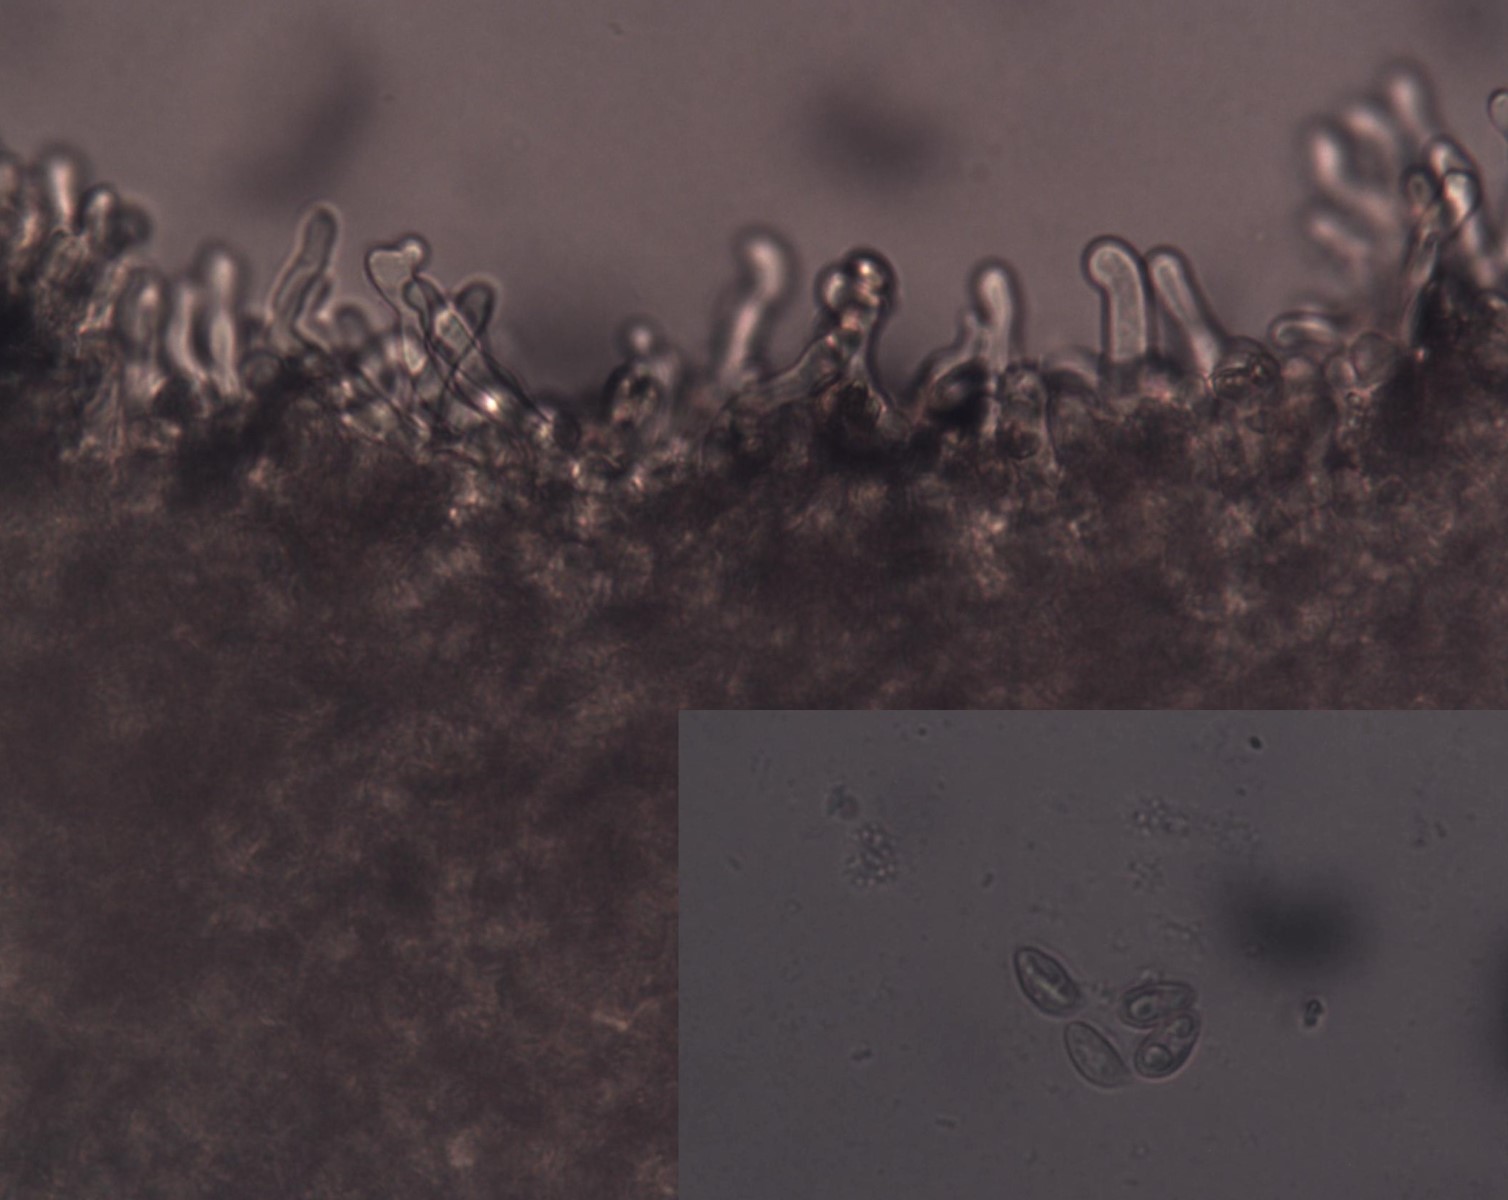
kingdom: Fungi
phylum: Basidiomycota
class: Agaricomycetes
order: Agaricales
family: Crepidotaceae
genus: Crepidotus
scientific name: Crepidotus luteolus
